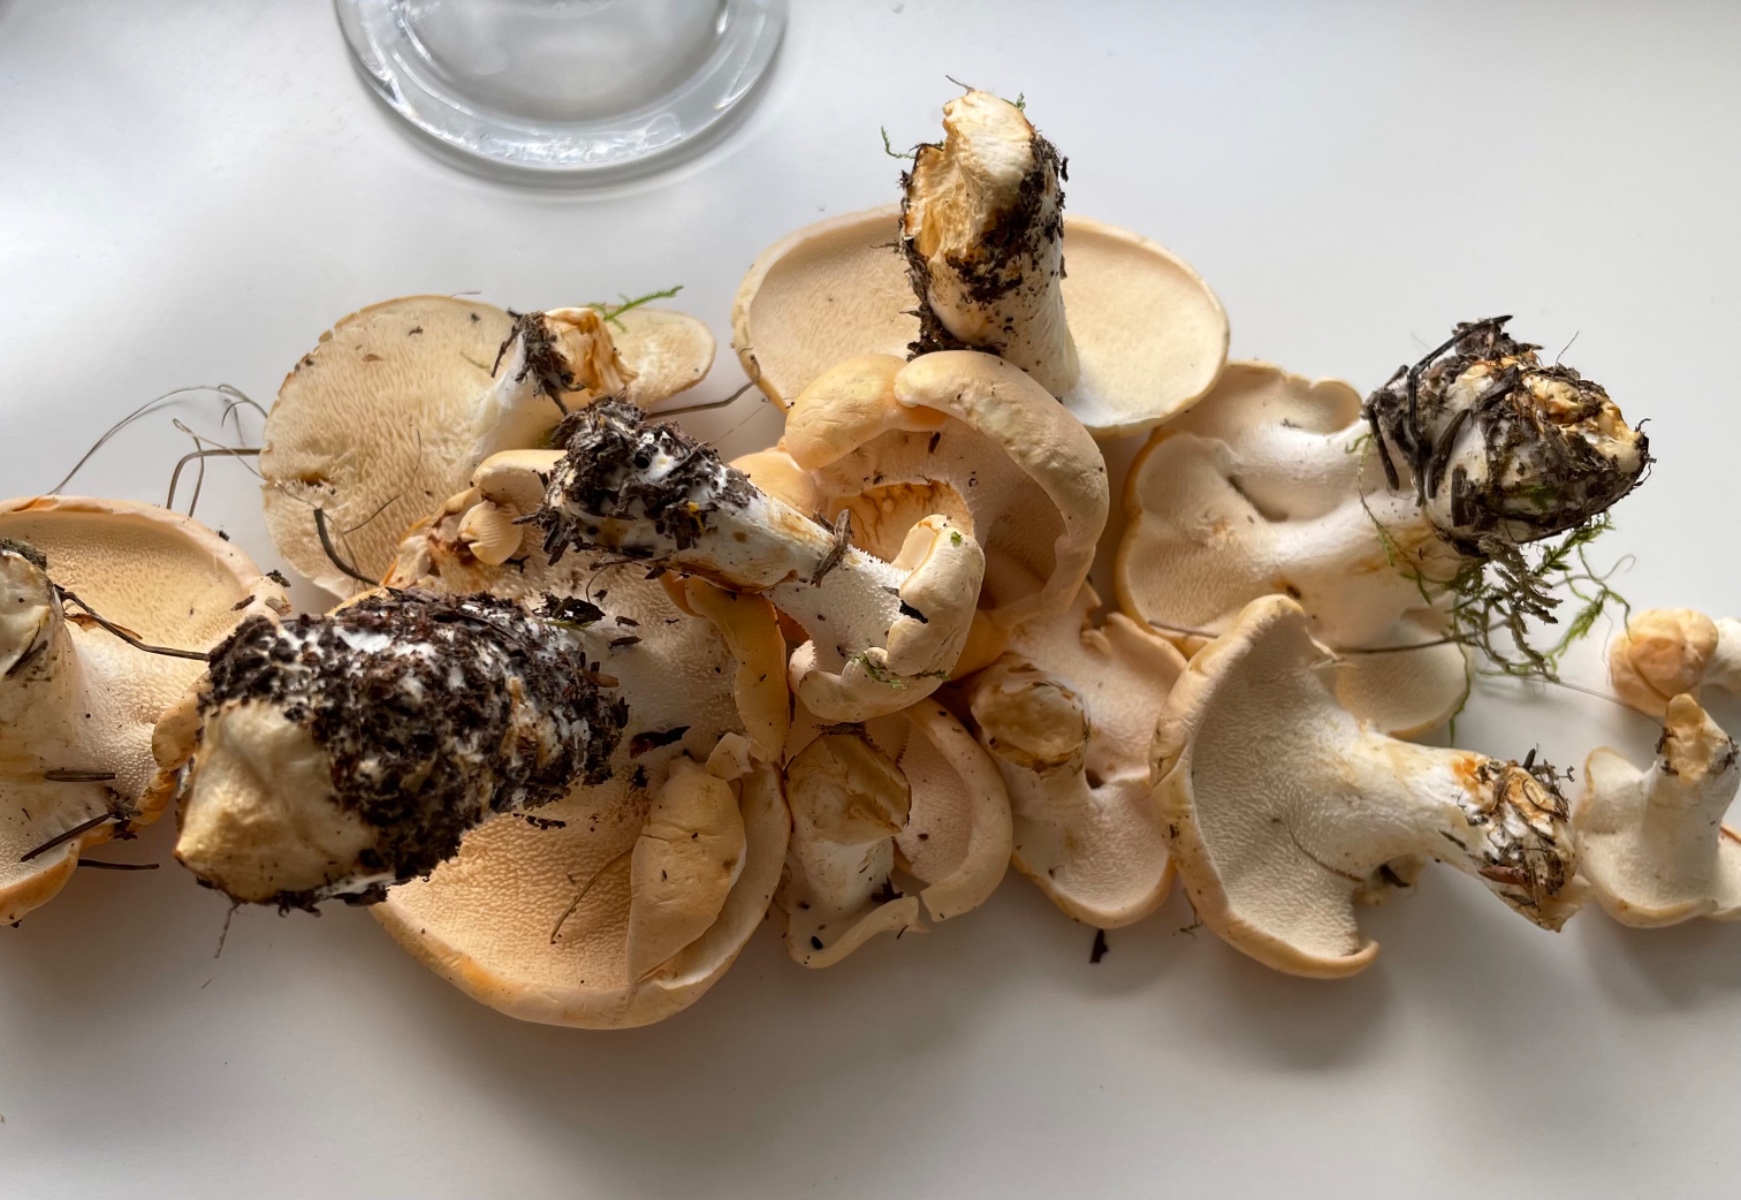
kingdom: Fungi
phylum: Basidiomycota
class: Agaricomycetes
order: Cantharellales
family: Hydnaceae
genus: Hydnum
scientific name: Hydnum
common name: pigsvamp
